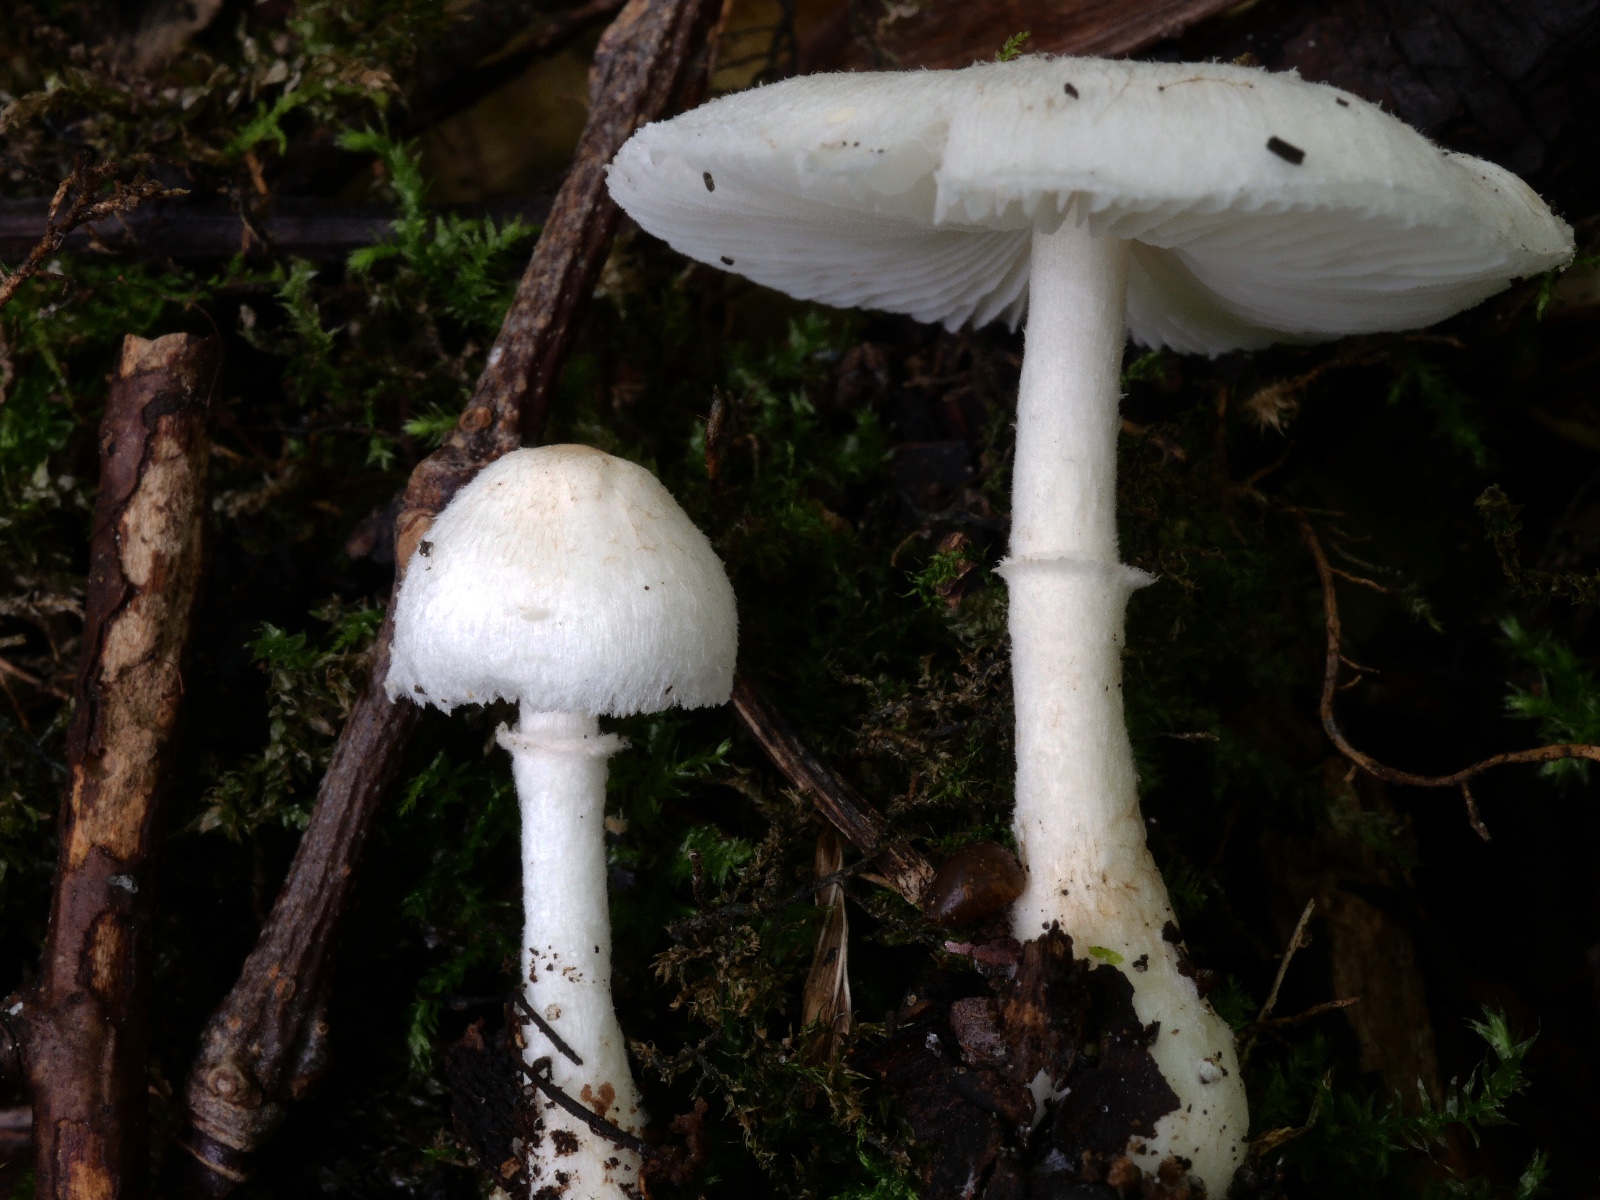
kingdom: Fungi
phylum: Basidiomycota
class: Agaricomycetes
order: Agaricales
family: Agaricaceae
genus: Leucoagaricus
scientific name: Leucoagaricus sericifer
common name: hvid silkehat
